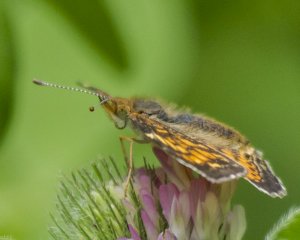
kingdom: Animalia
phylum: Arthropoda
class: Insecta
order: Lepidoptera
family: Nymphalidae
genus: Phyciodes
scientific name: Phyciodes tharos
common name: Northern Crescent
